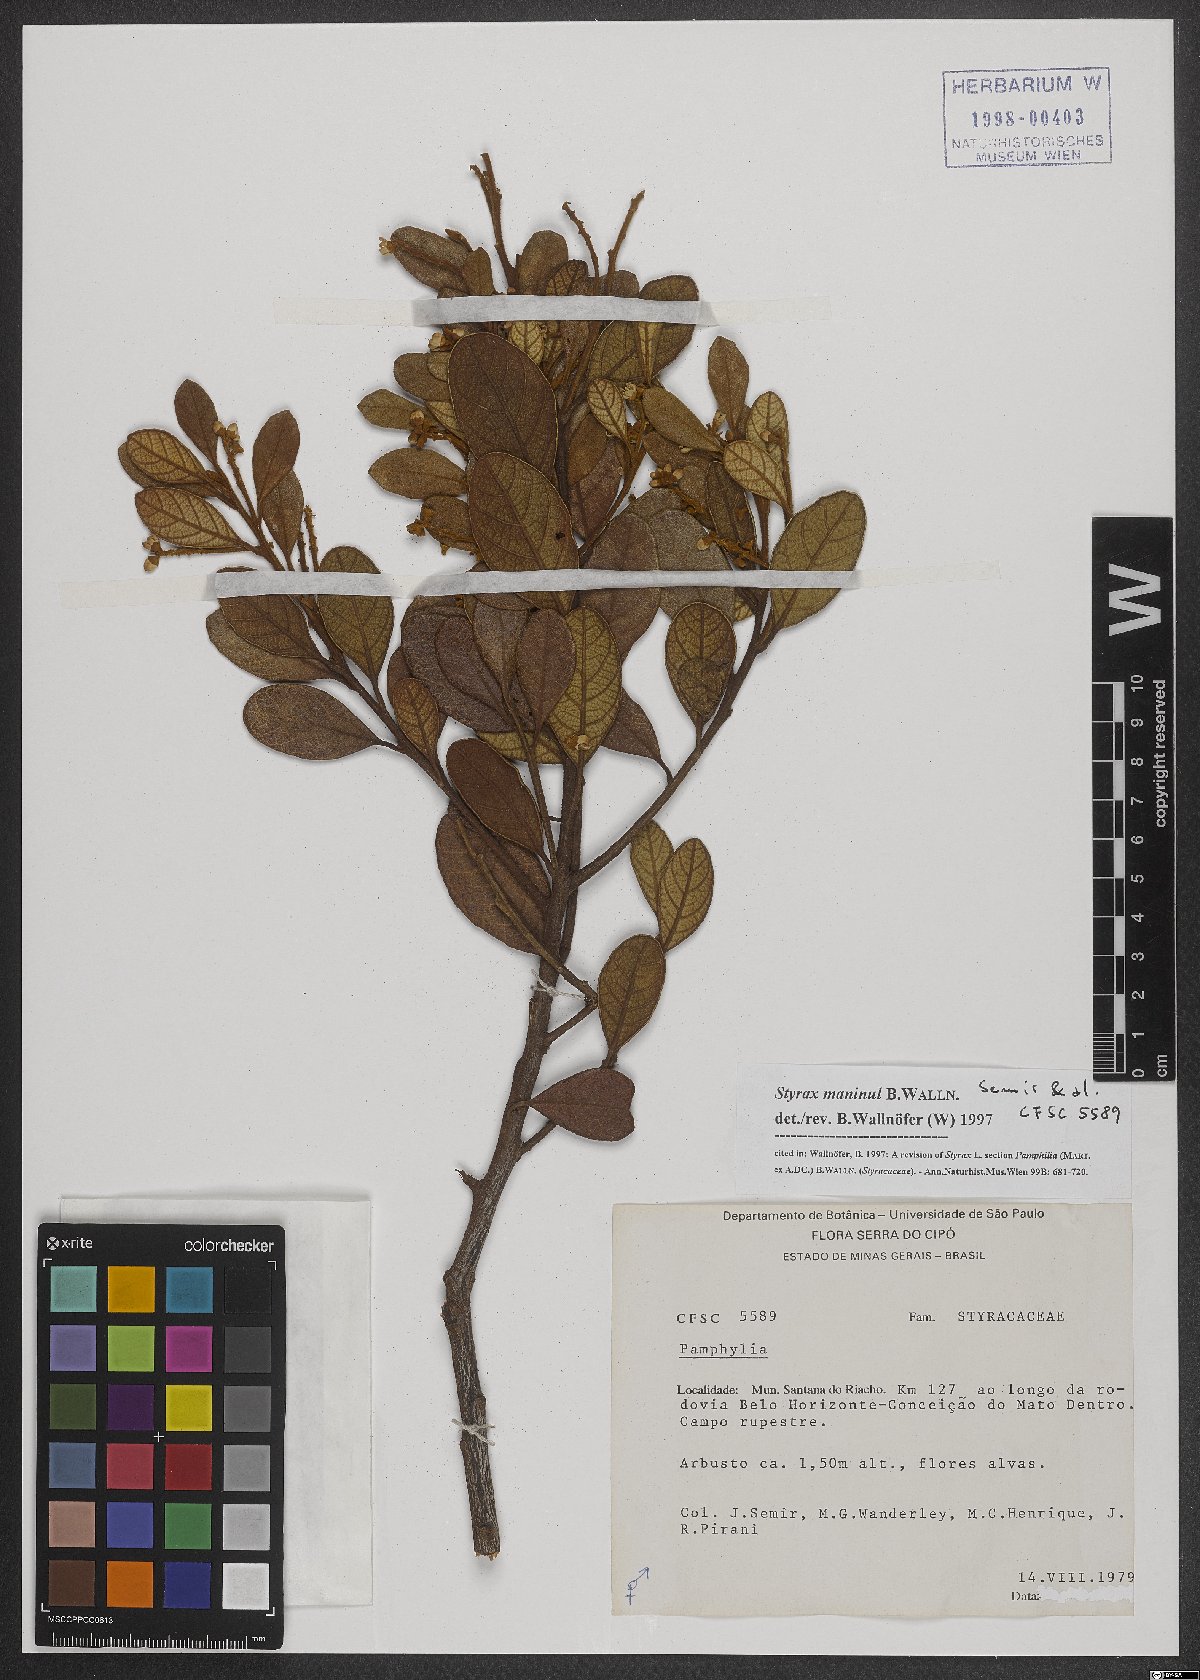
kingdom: Plantae
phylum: Tracheophyta
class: Magnoliopsida
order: Ericales
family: Styracaceae
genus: Styrax
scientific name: Styrax maninul
